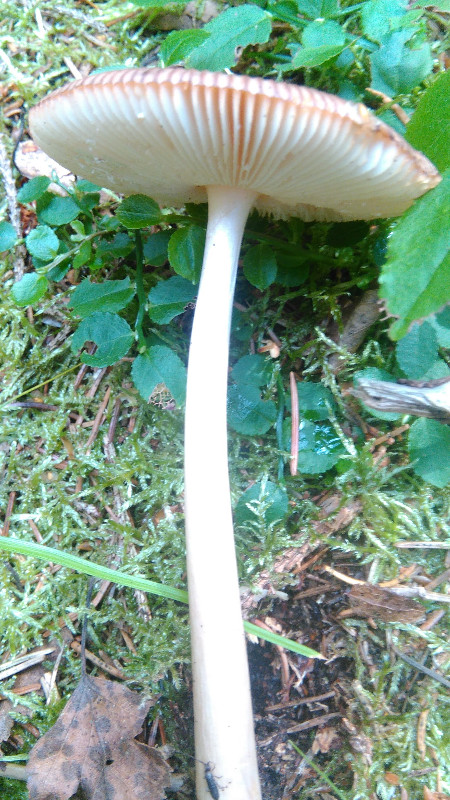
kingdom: Fungi
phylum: Basidiomycota
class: Agaricomycetes
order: Agaricales
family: Amanitaceae
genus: Amanita
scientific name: Amanita fulva
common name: brun kam-fluesvamp
